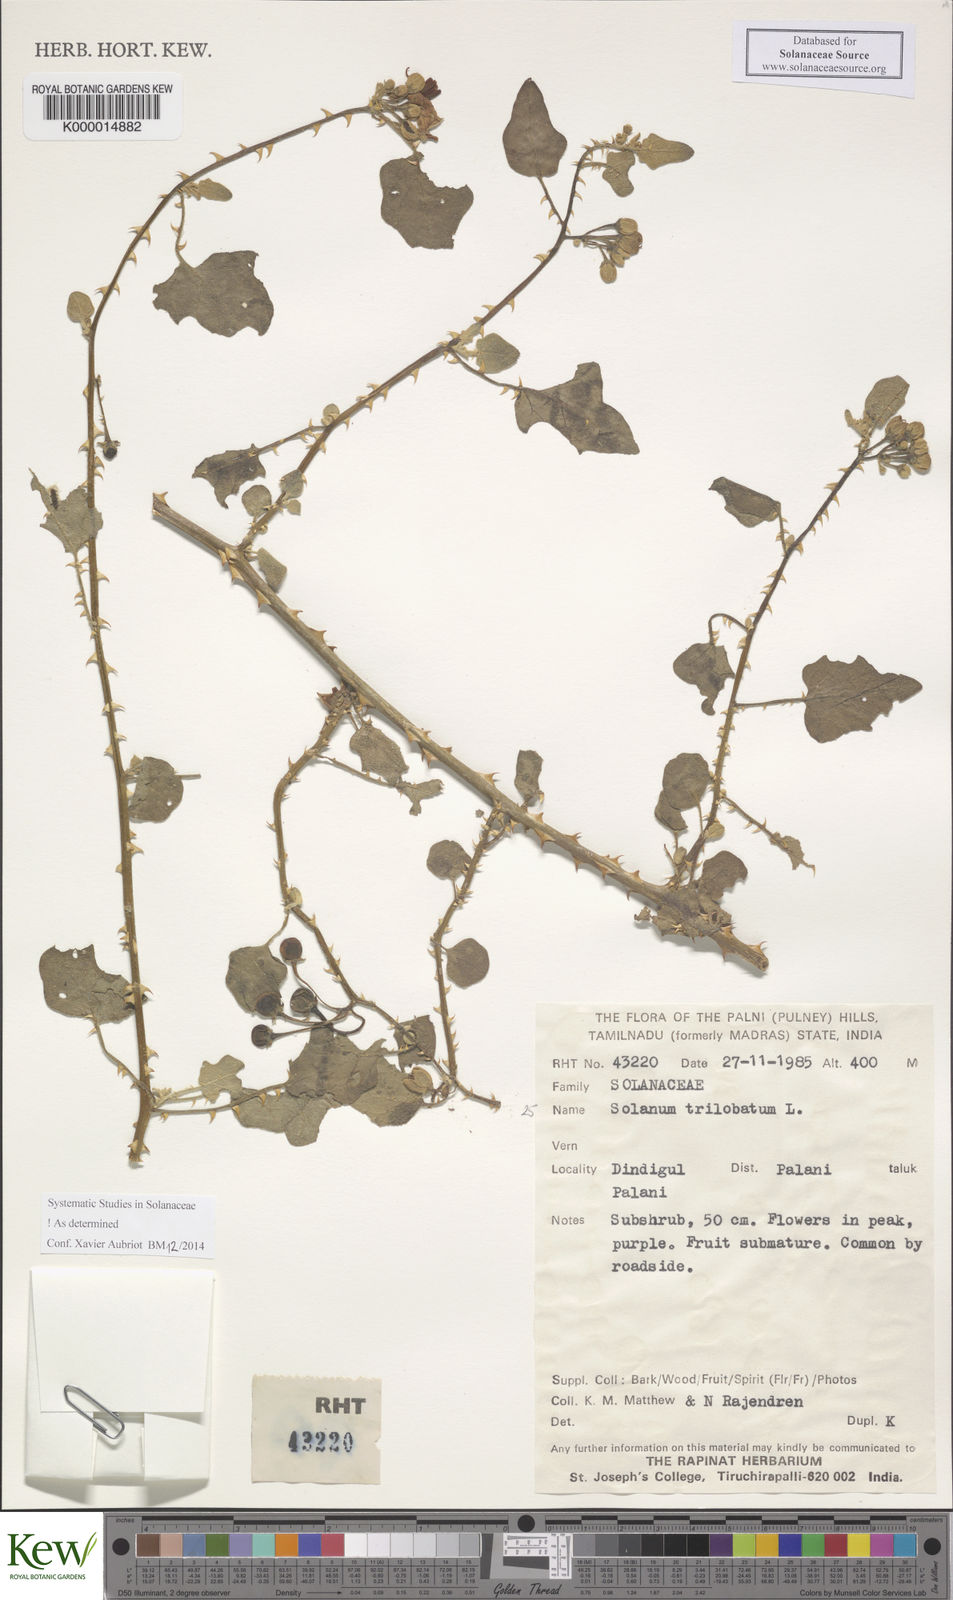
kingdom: Plantae
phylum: Tracheophyta
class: Magnoliopsida
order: Solanales
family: Solanaceae
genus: Solanum
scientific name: Solanum trilobatum
